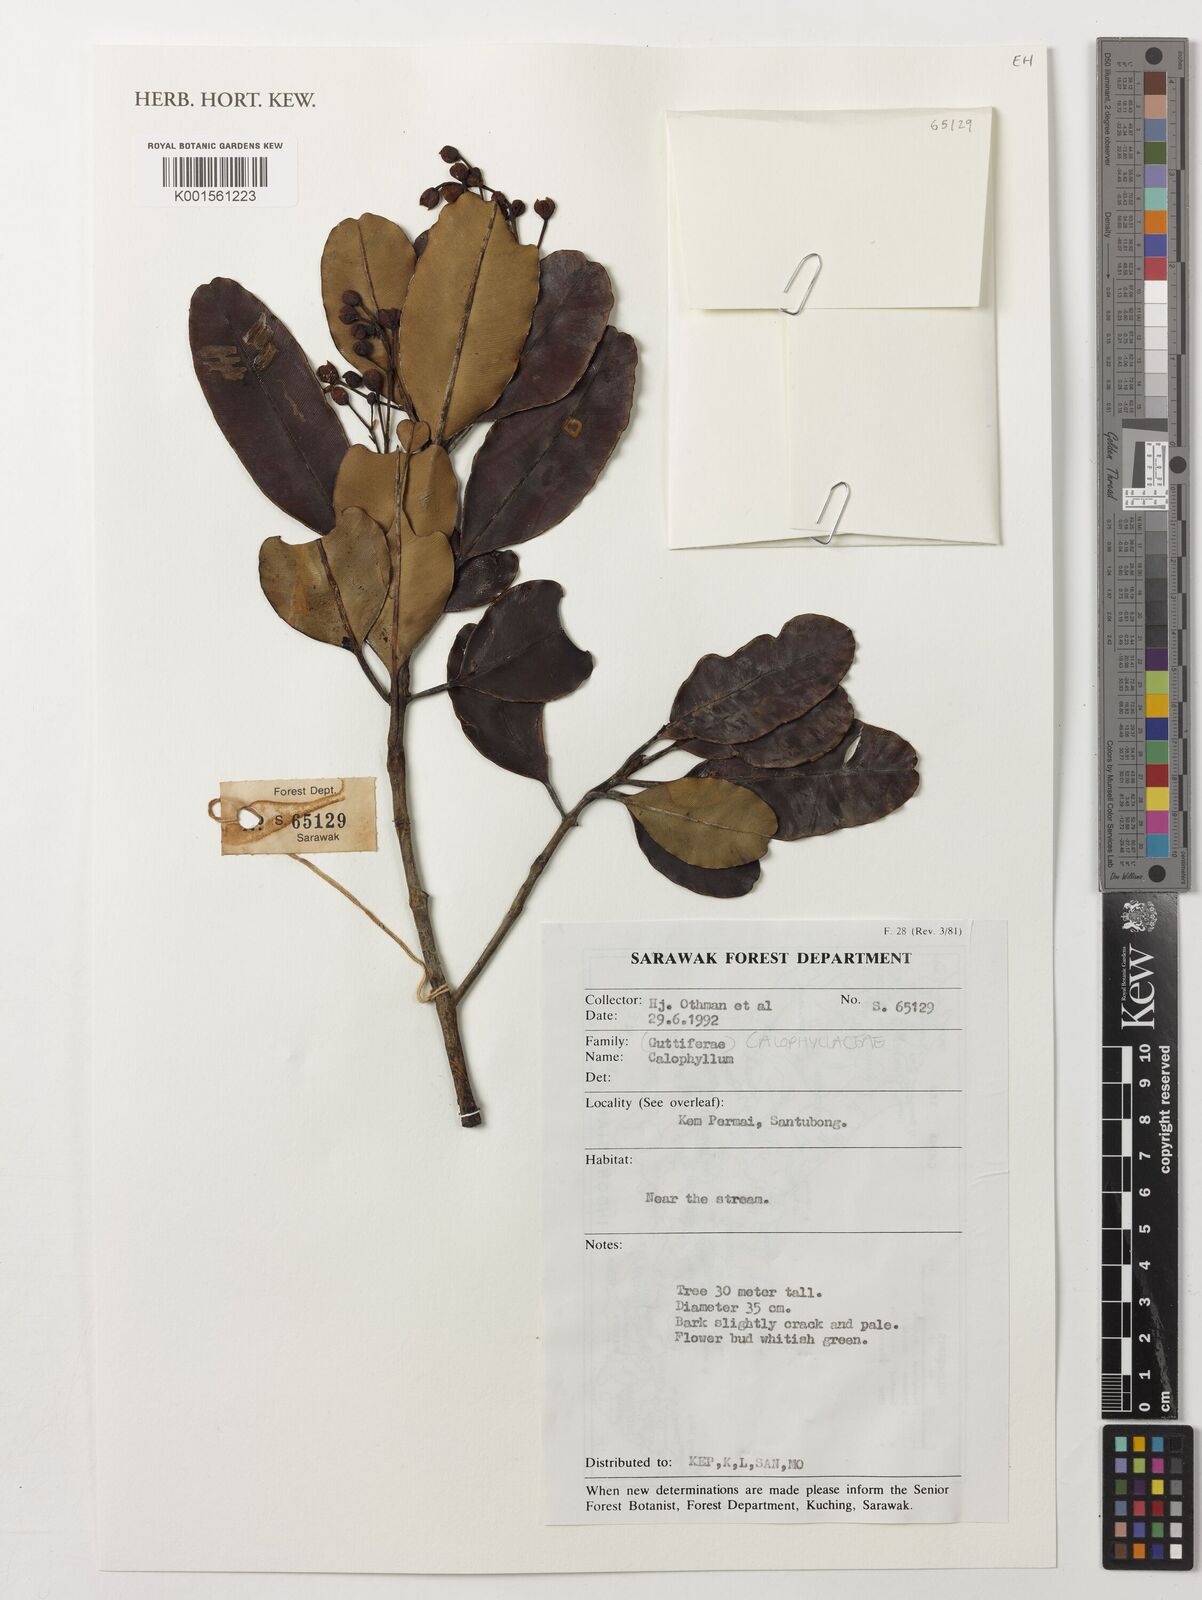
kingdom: Plantae
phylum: Tracheophyta
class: Magnoliopsida
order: Malpighiales
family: Calophyllaceae
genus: Calophyllum
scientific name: Calophyllum
